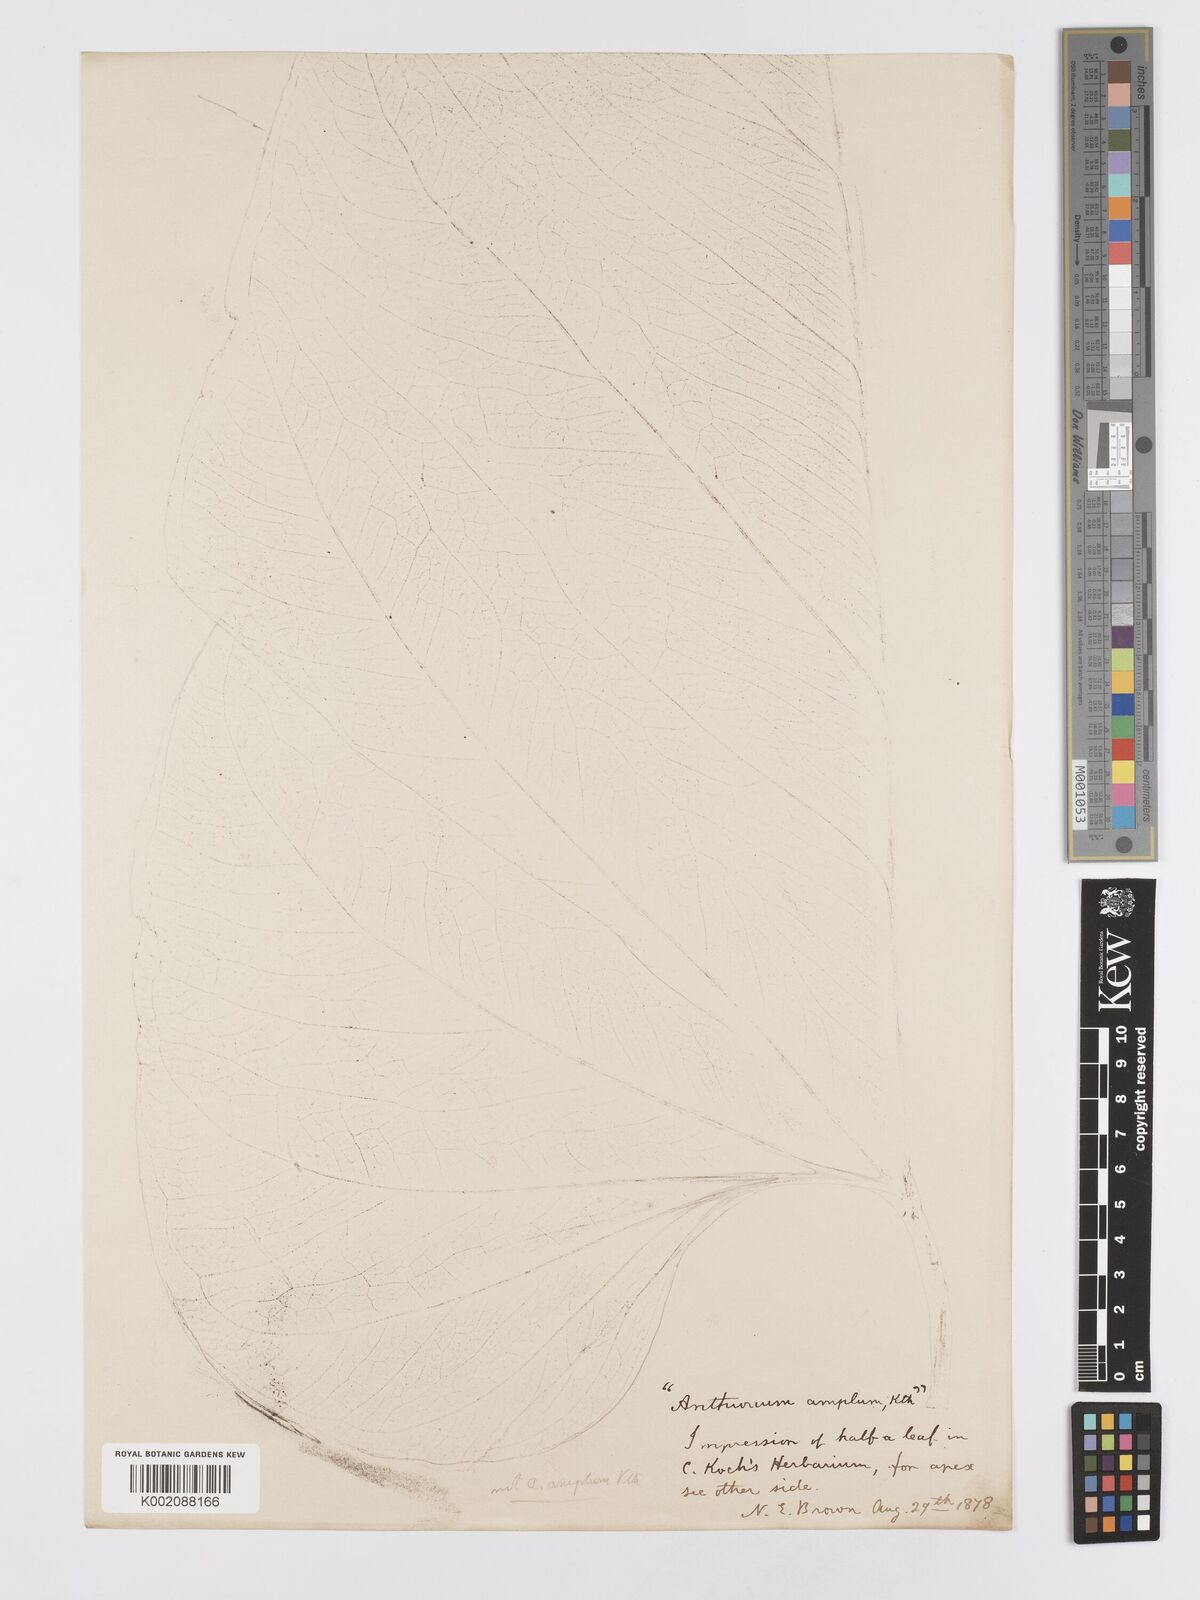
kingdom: Plantae
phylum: Tracheophyta
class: Liliopsida
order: Alismatales
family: Araceae
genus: Anthurium
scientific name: Anthurium
